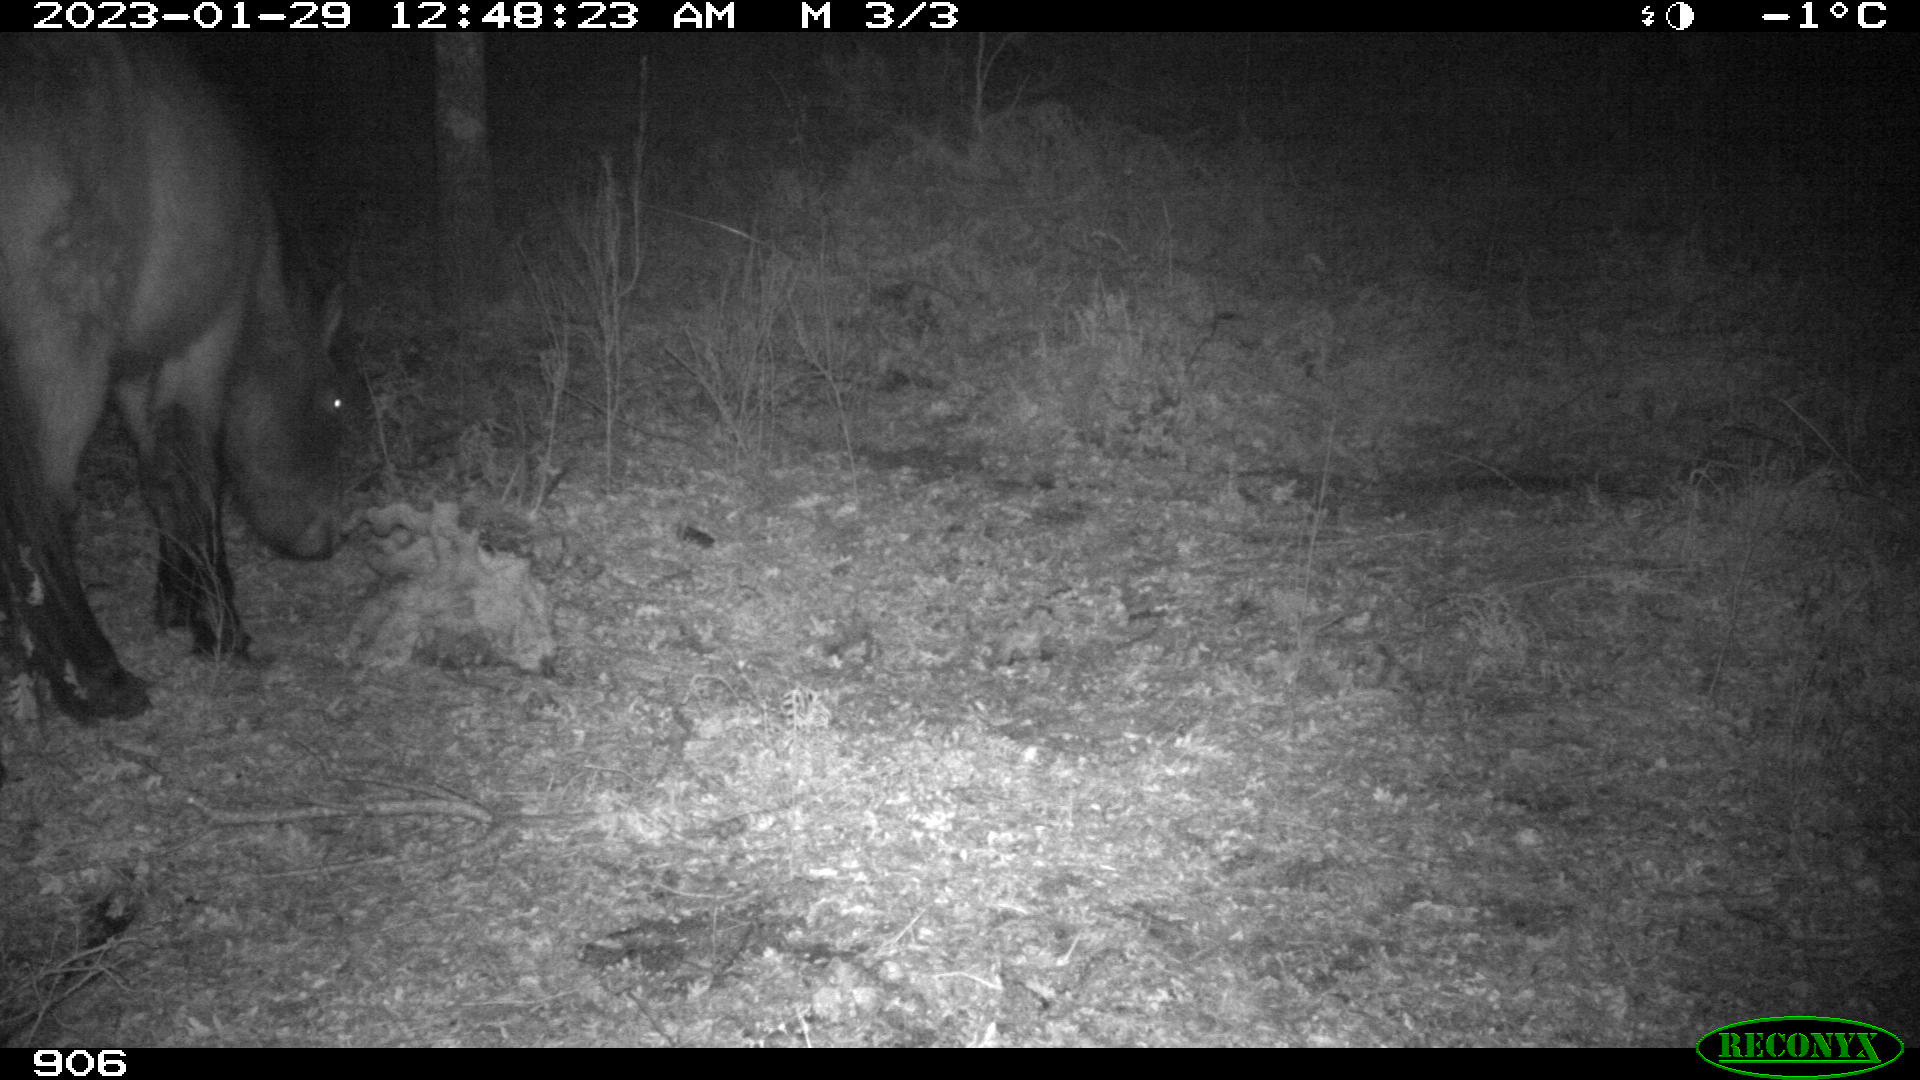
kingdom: Animalia
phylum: Chordata
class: Mammalia
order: Perissodactyla
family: Equidae
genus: Equus
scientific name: Equus caballus
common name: Horse
